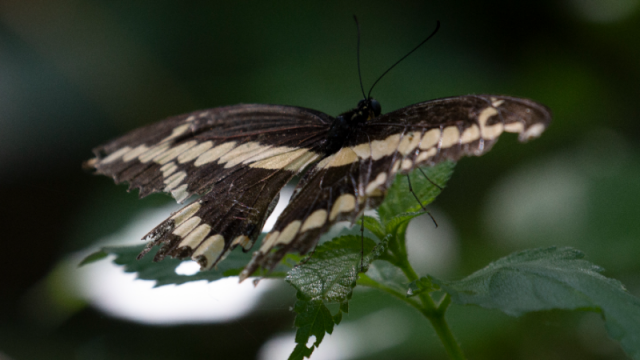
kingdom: Animalia
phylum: Arthropoda
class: Insecta
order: Lepidoptera
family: Papilionidae
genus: Papilio
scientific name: Papilio cresphontes
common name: Eastern Giant Swallowtail
